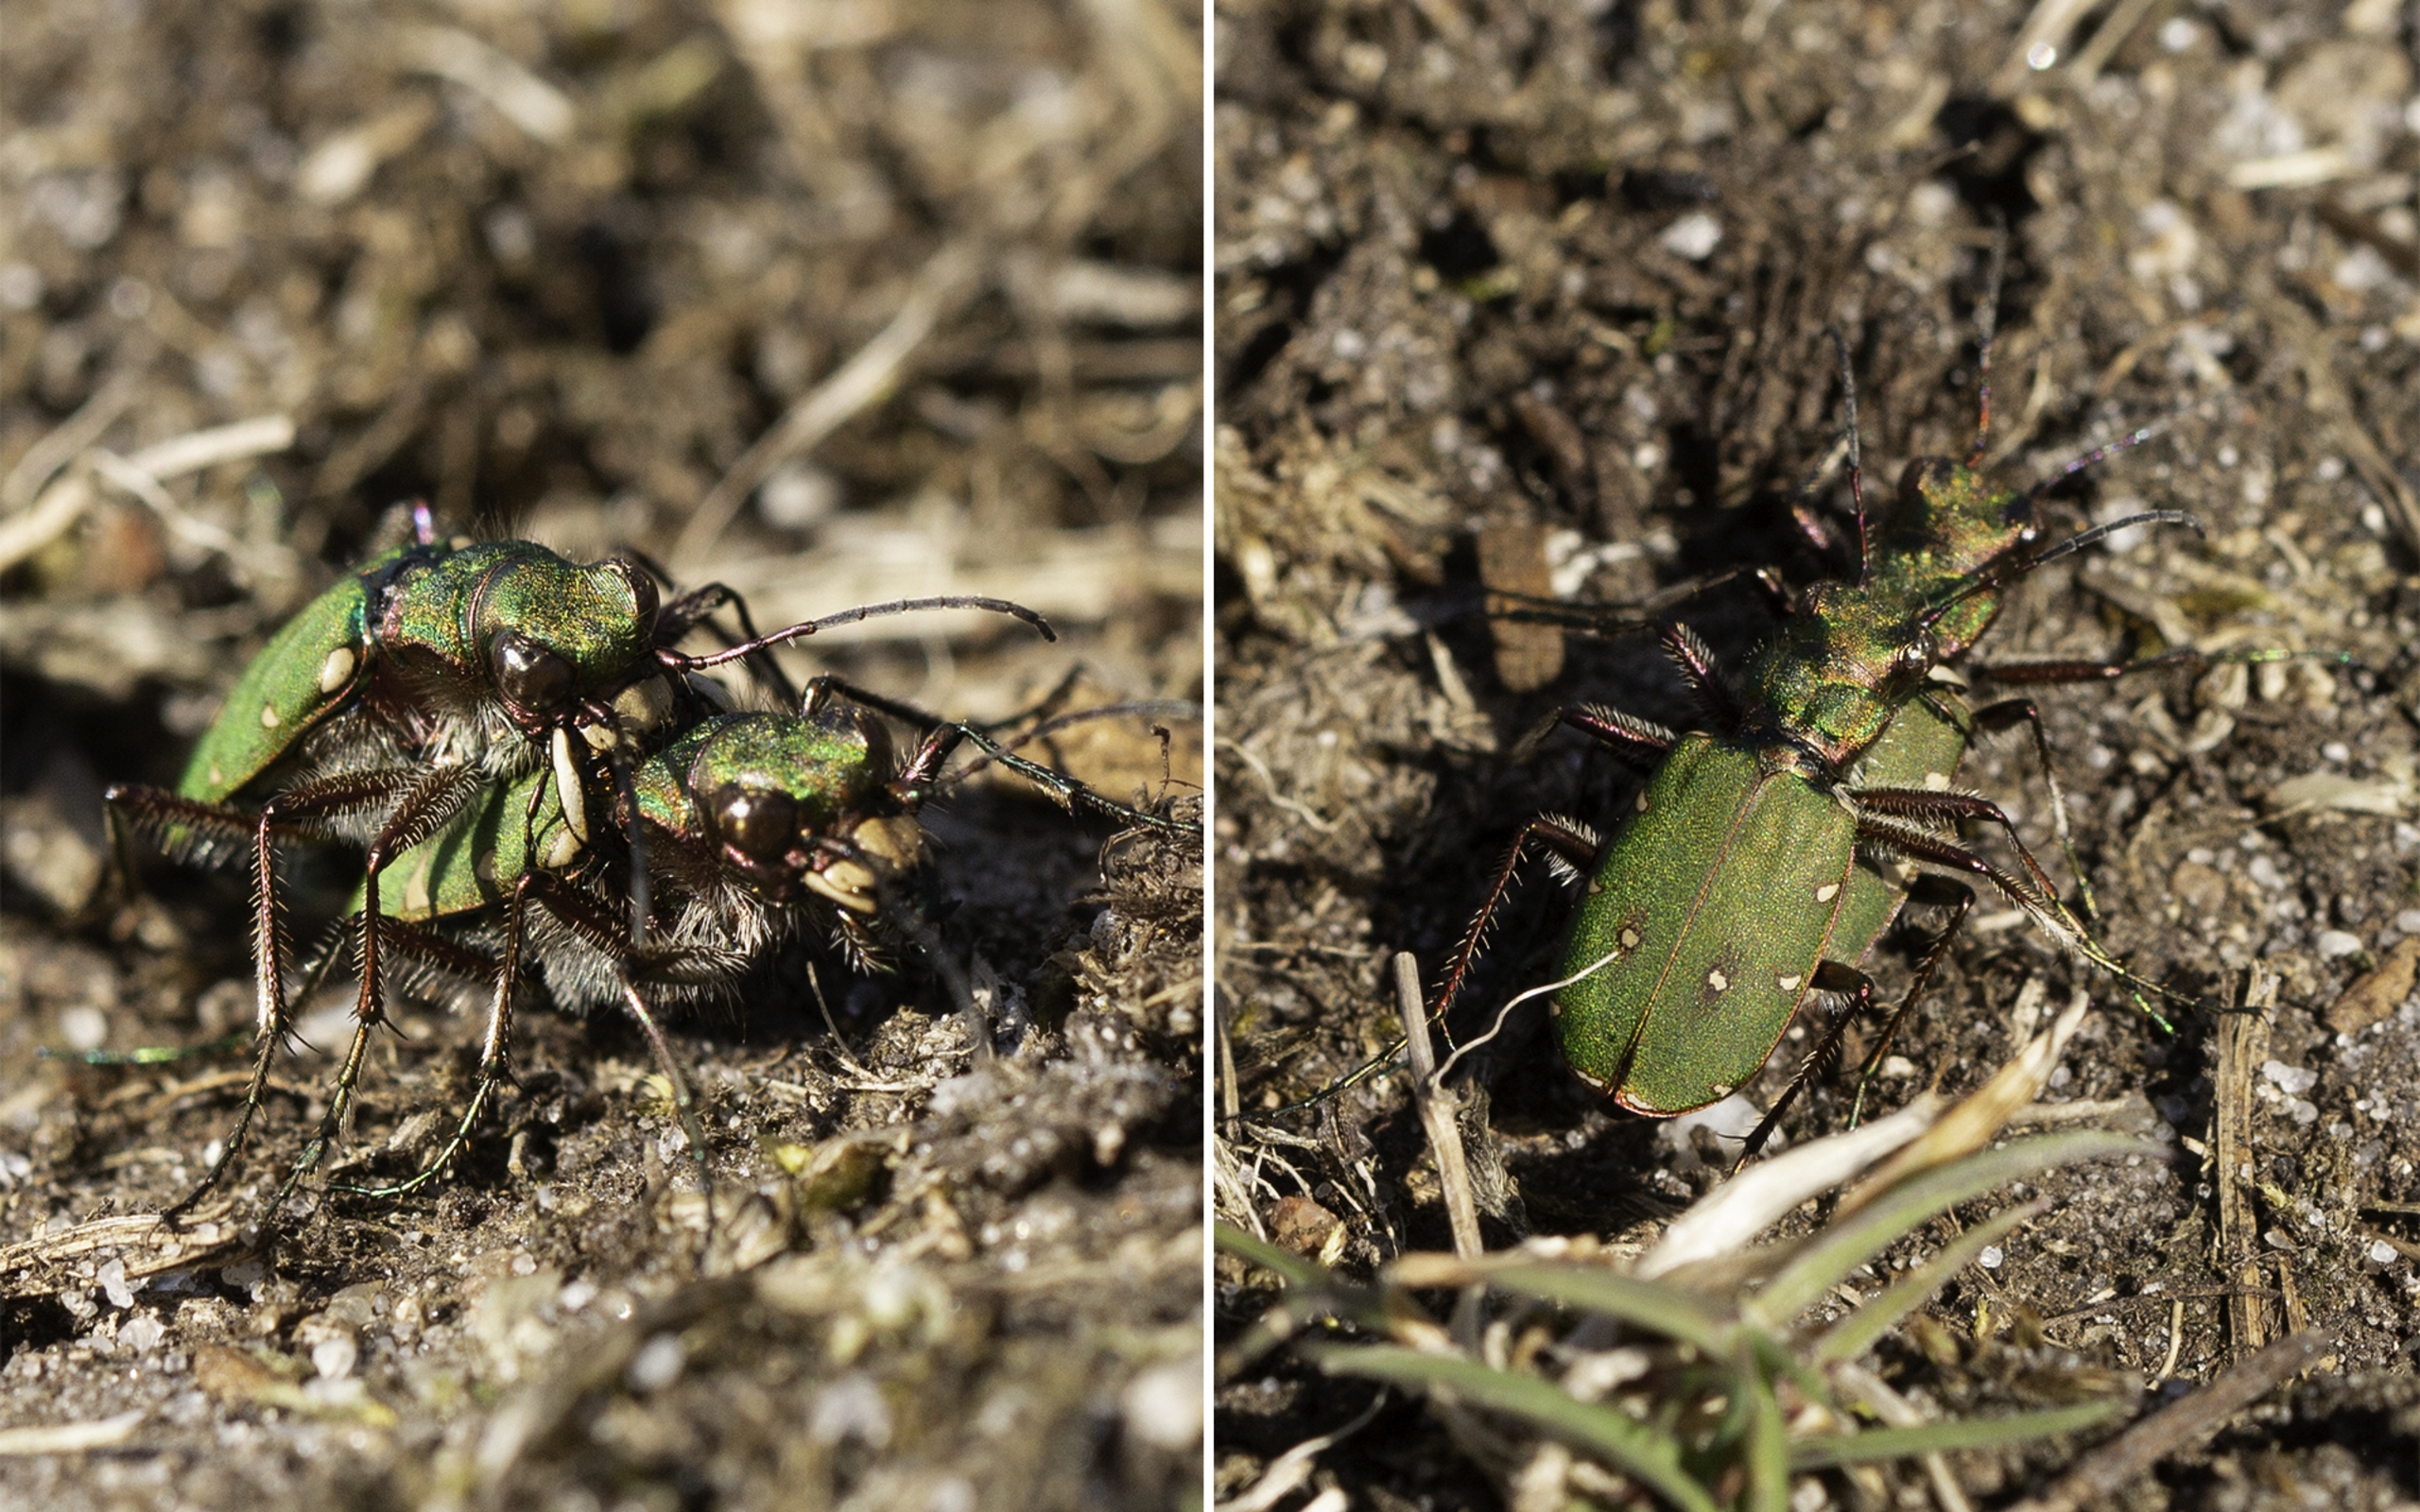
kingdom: Animalia
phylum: Arthropoda
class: Insecta
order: Coleoptera
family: Carabidae
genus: Cicindela
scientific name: Cicindela campestris
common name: Grøn sandspringer
